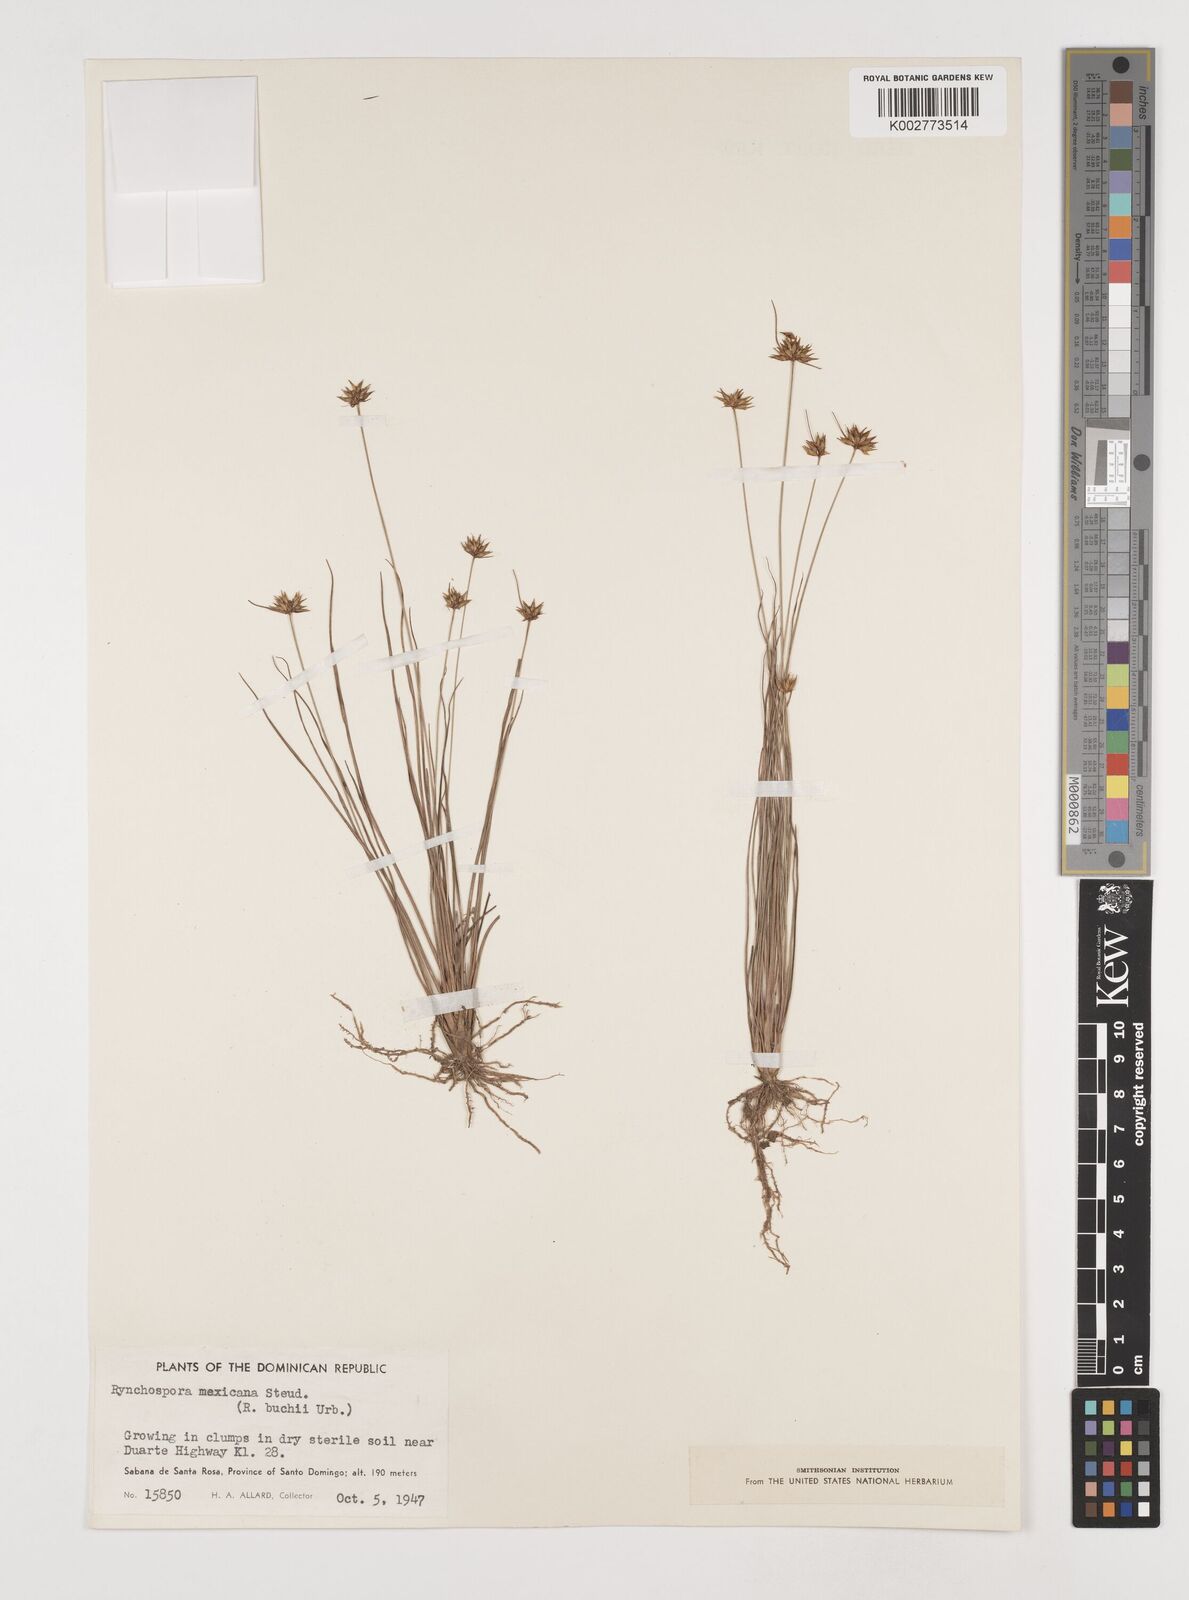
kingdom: Plantae
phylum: Tracheophyta
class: Liliopsida
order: Poales
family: Cyperaceae
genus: Rhynchospora
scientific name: Rhynchospora mexicana
